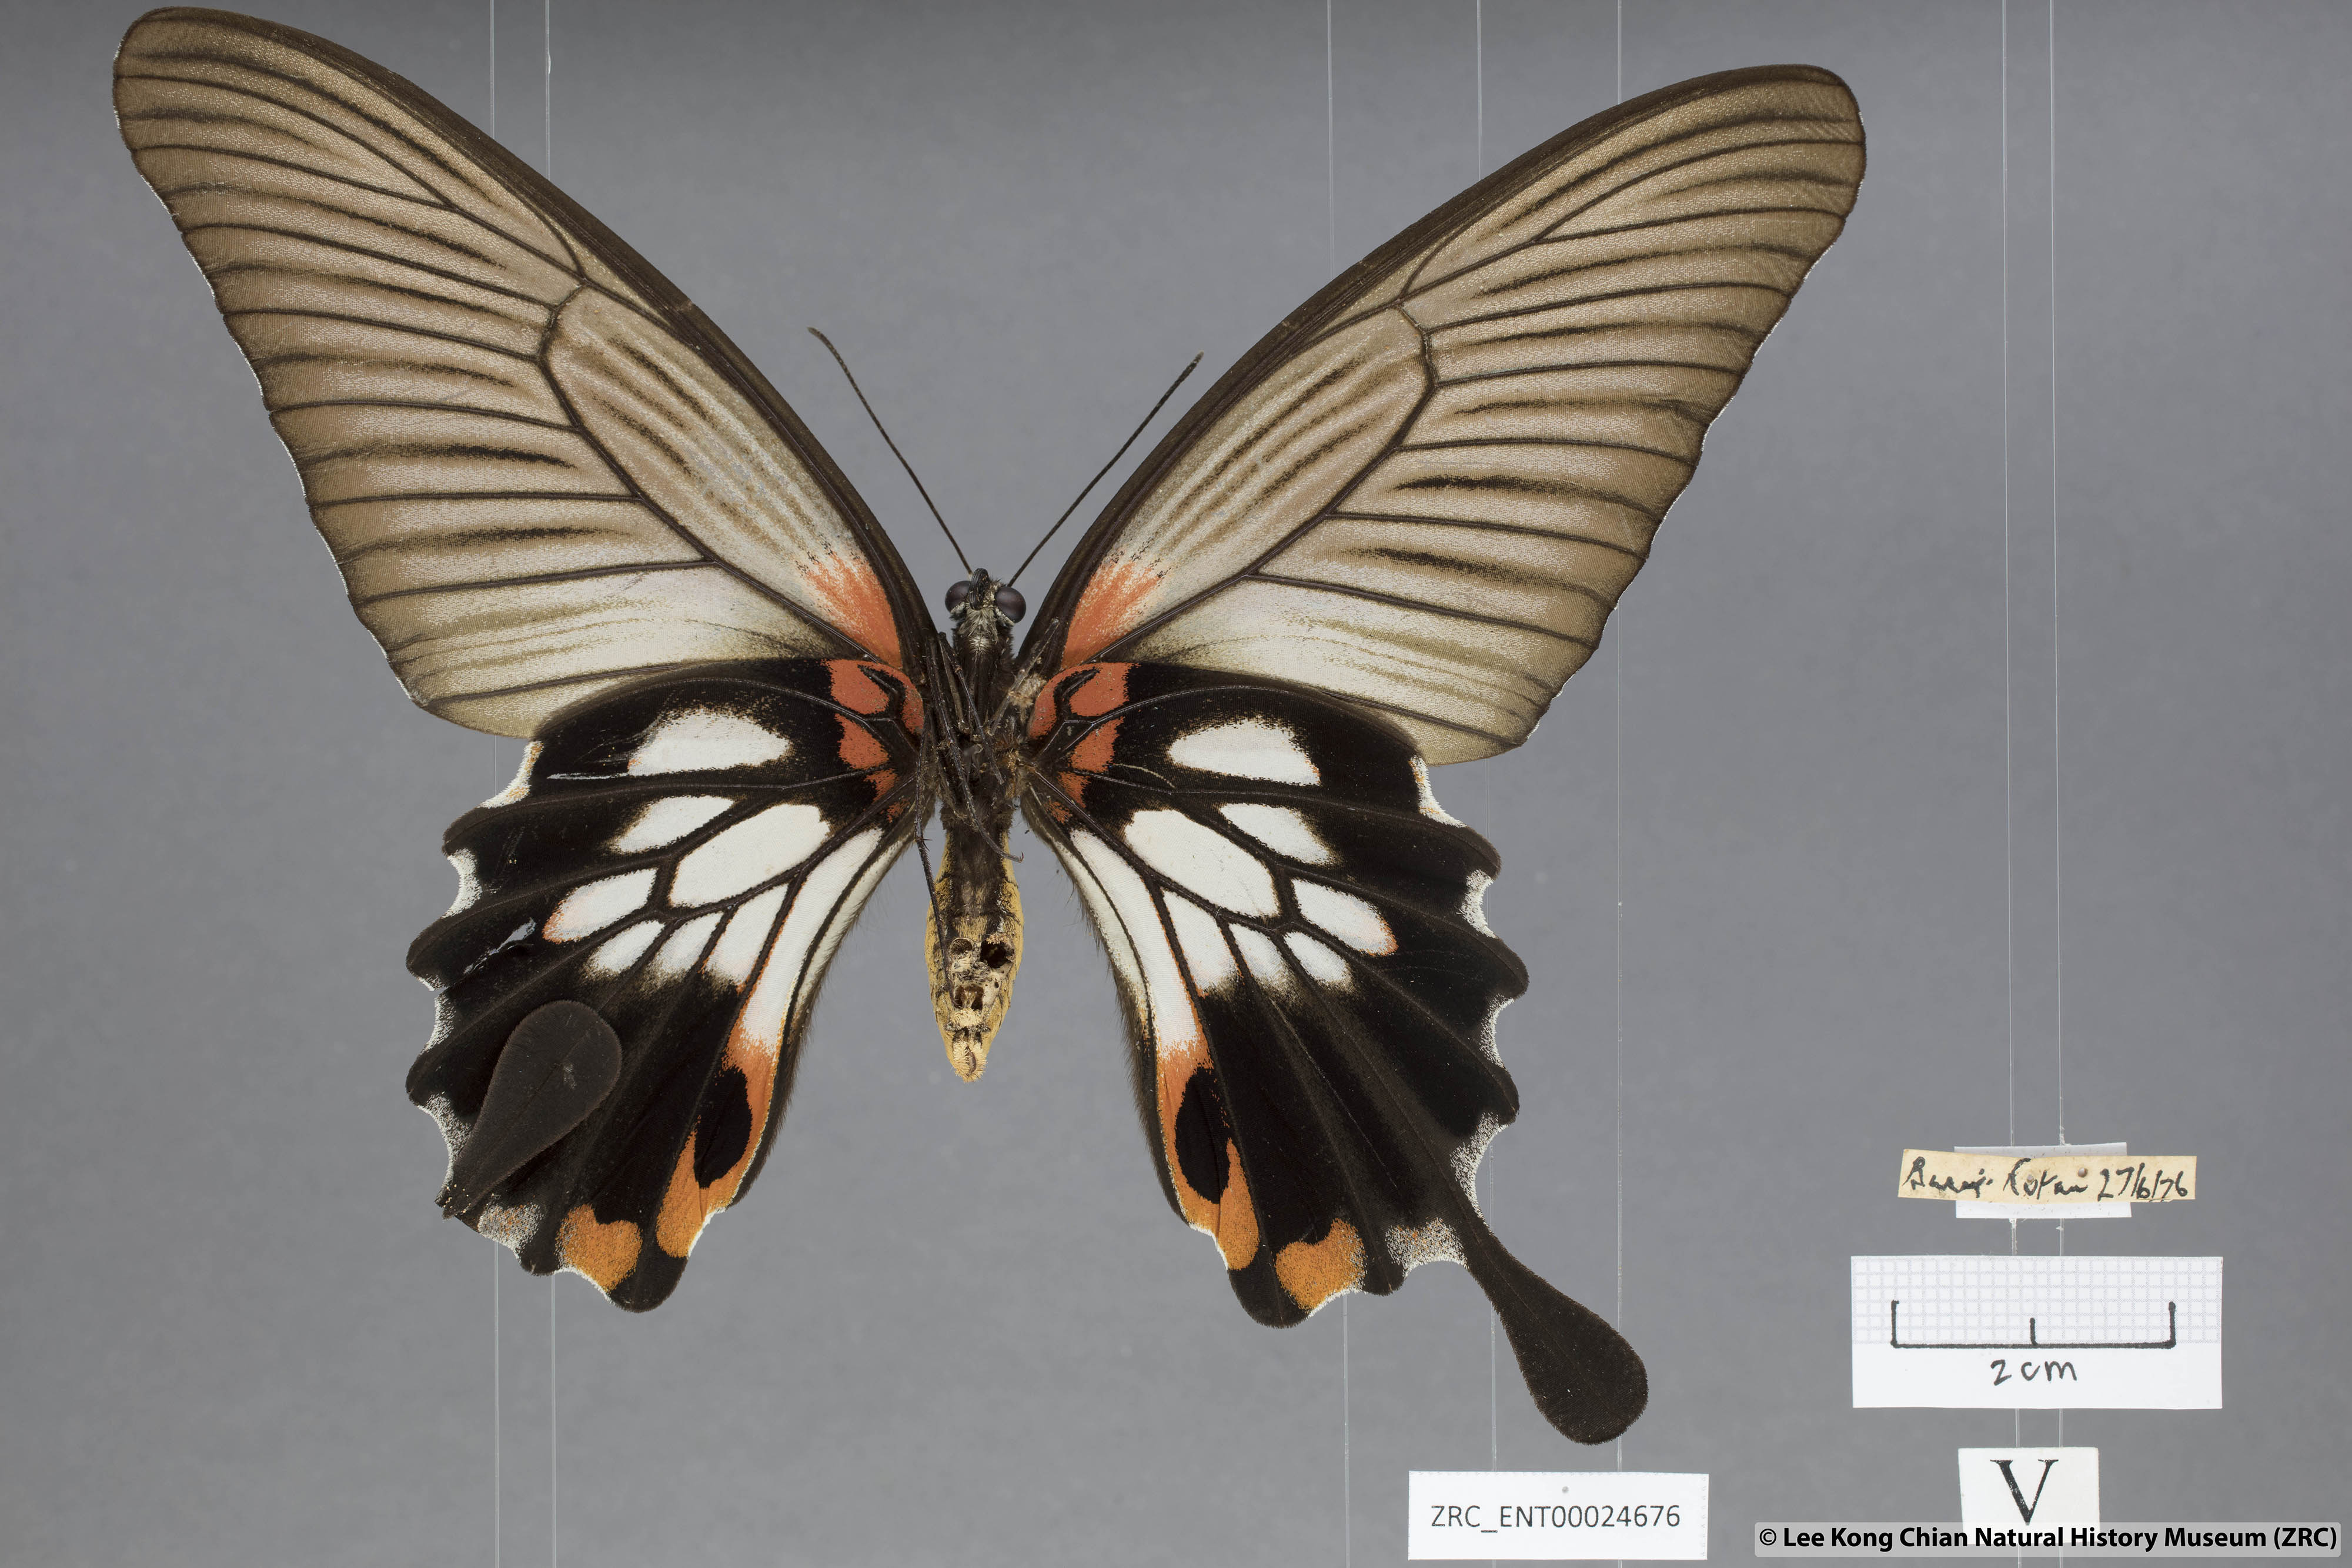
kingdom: Animalia
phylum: Arthropoda
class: Insecta
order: Lepidoptera
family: Papilionidae
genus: Papilio
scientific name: Papilio memnon
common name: Great mormon
